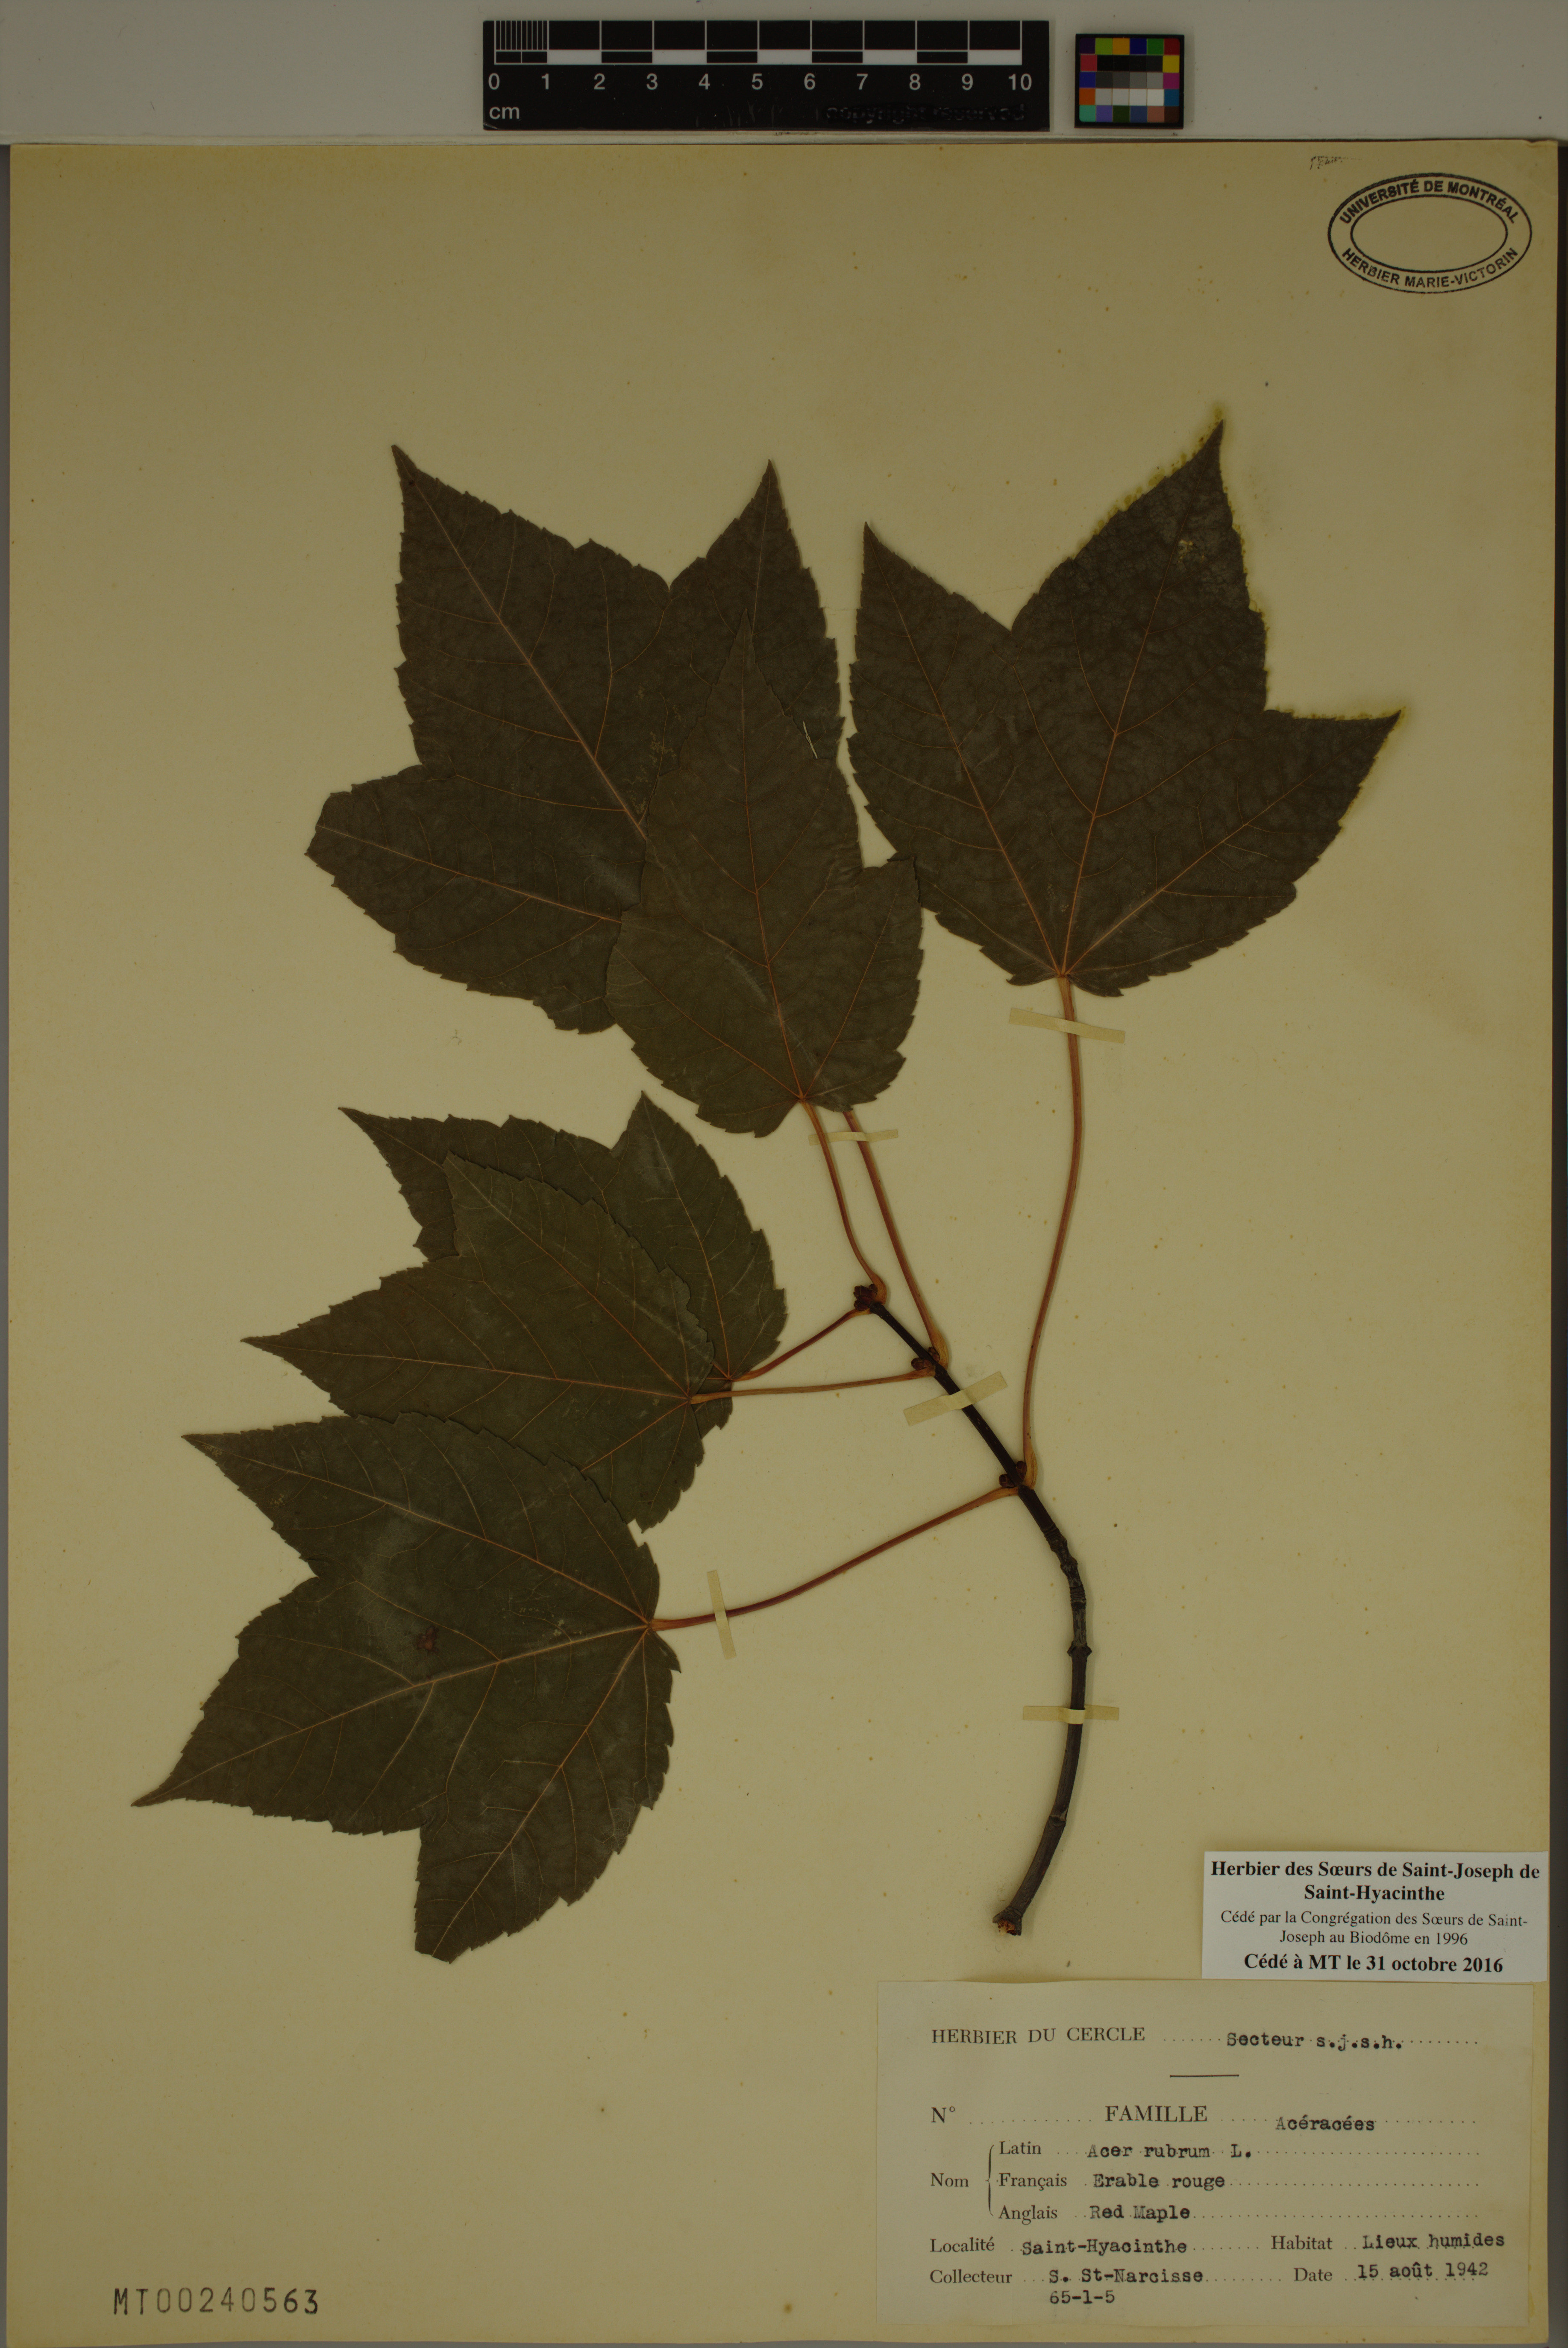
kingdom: Plantae
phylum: Tracheophyta
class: Magnoliopsida
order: Sapindales
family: Sapindaceae
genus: Acer
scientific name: Acer rubrum
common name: Red maple
